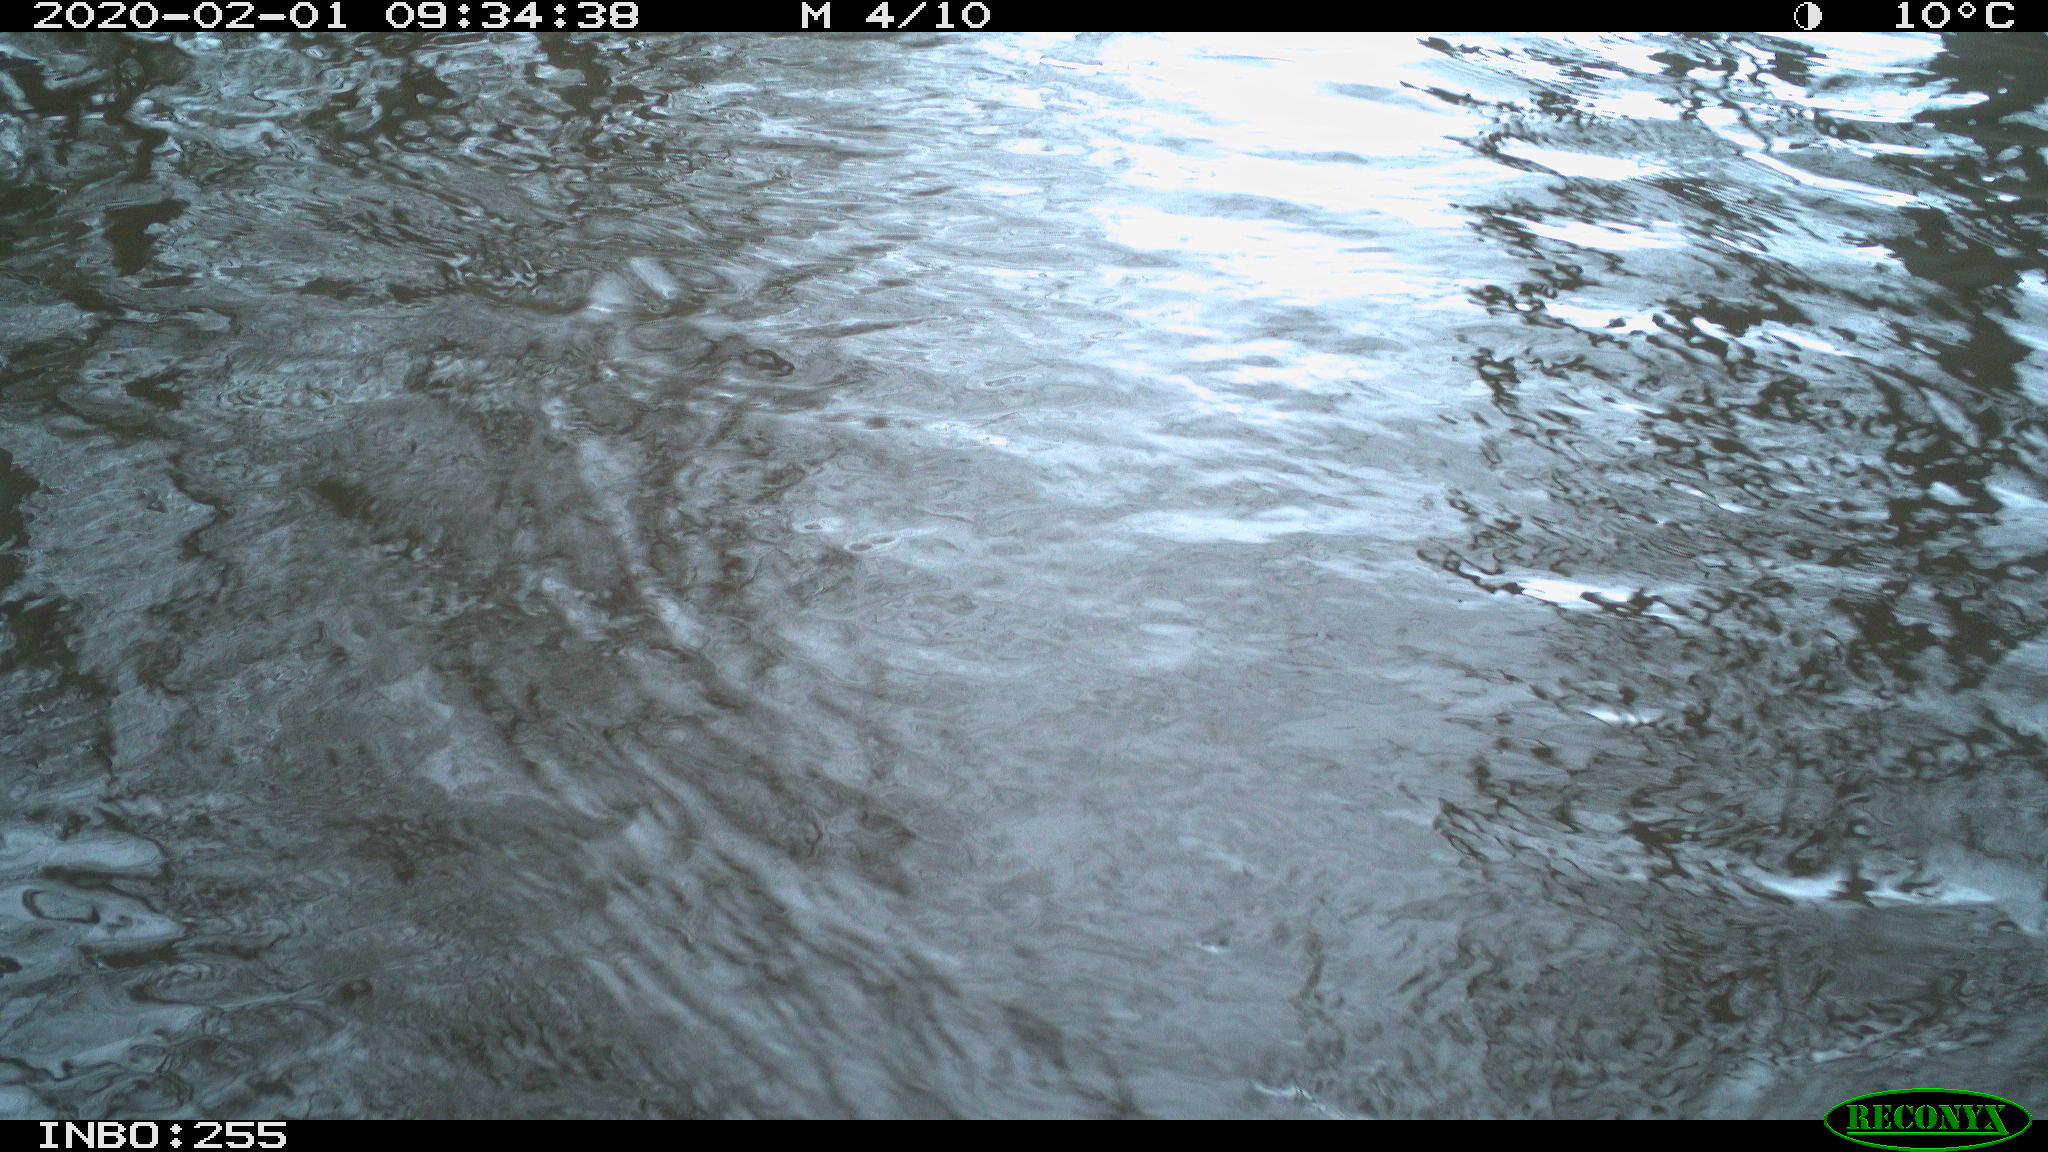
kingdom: Animalia
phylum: Chordata
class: Aves
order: Gruiformes
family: Rallidae
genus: Fulica
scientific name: Fulica atra
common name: Eurasian coot
